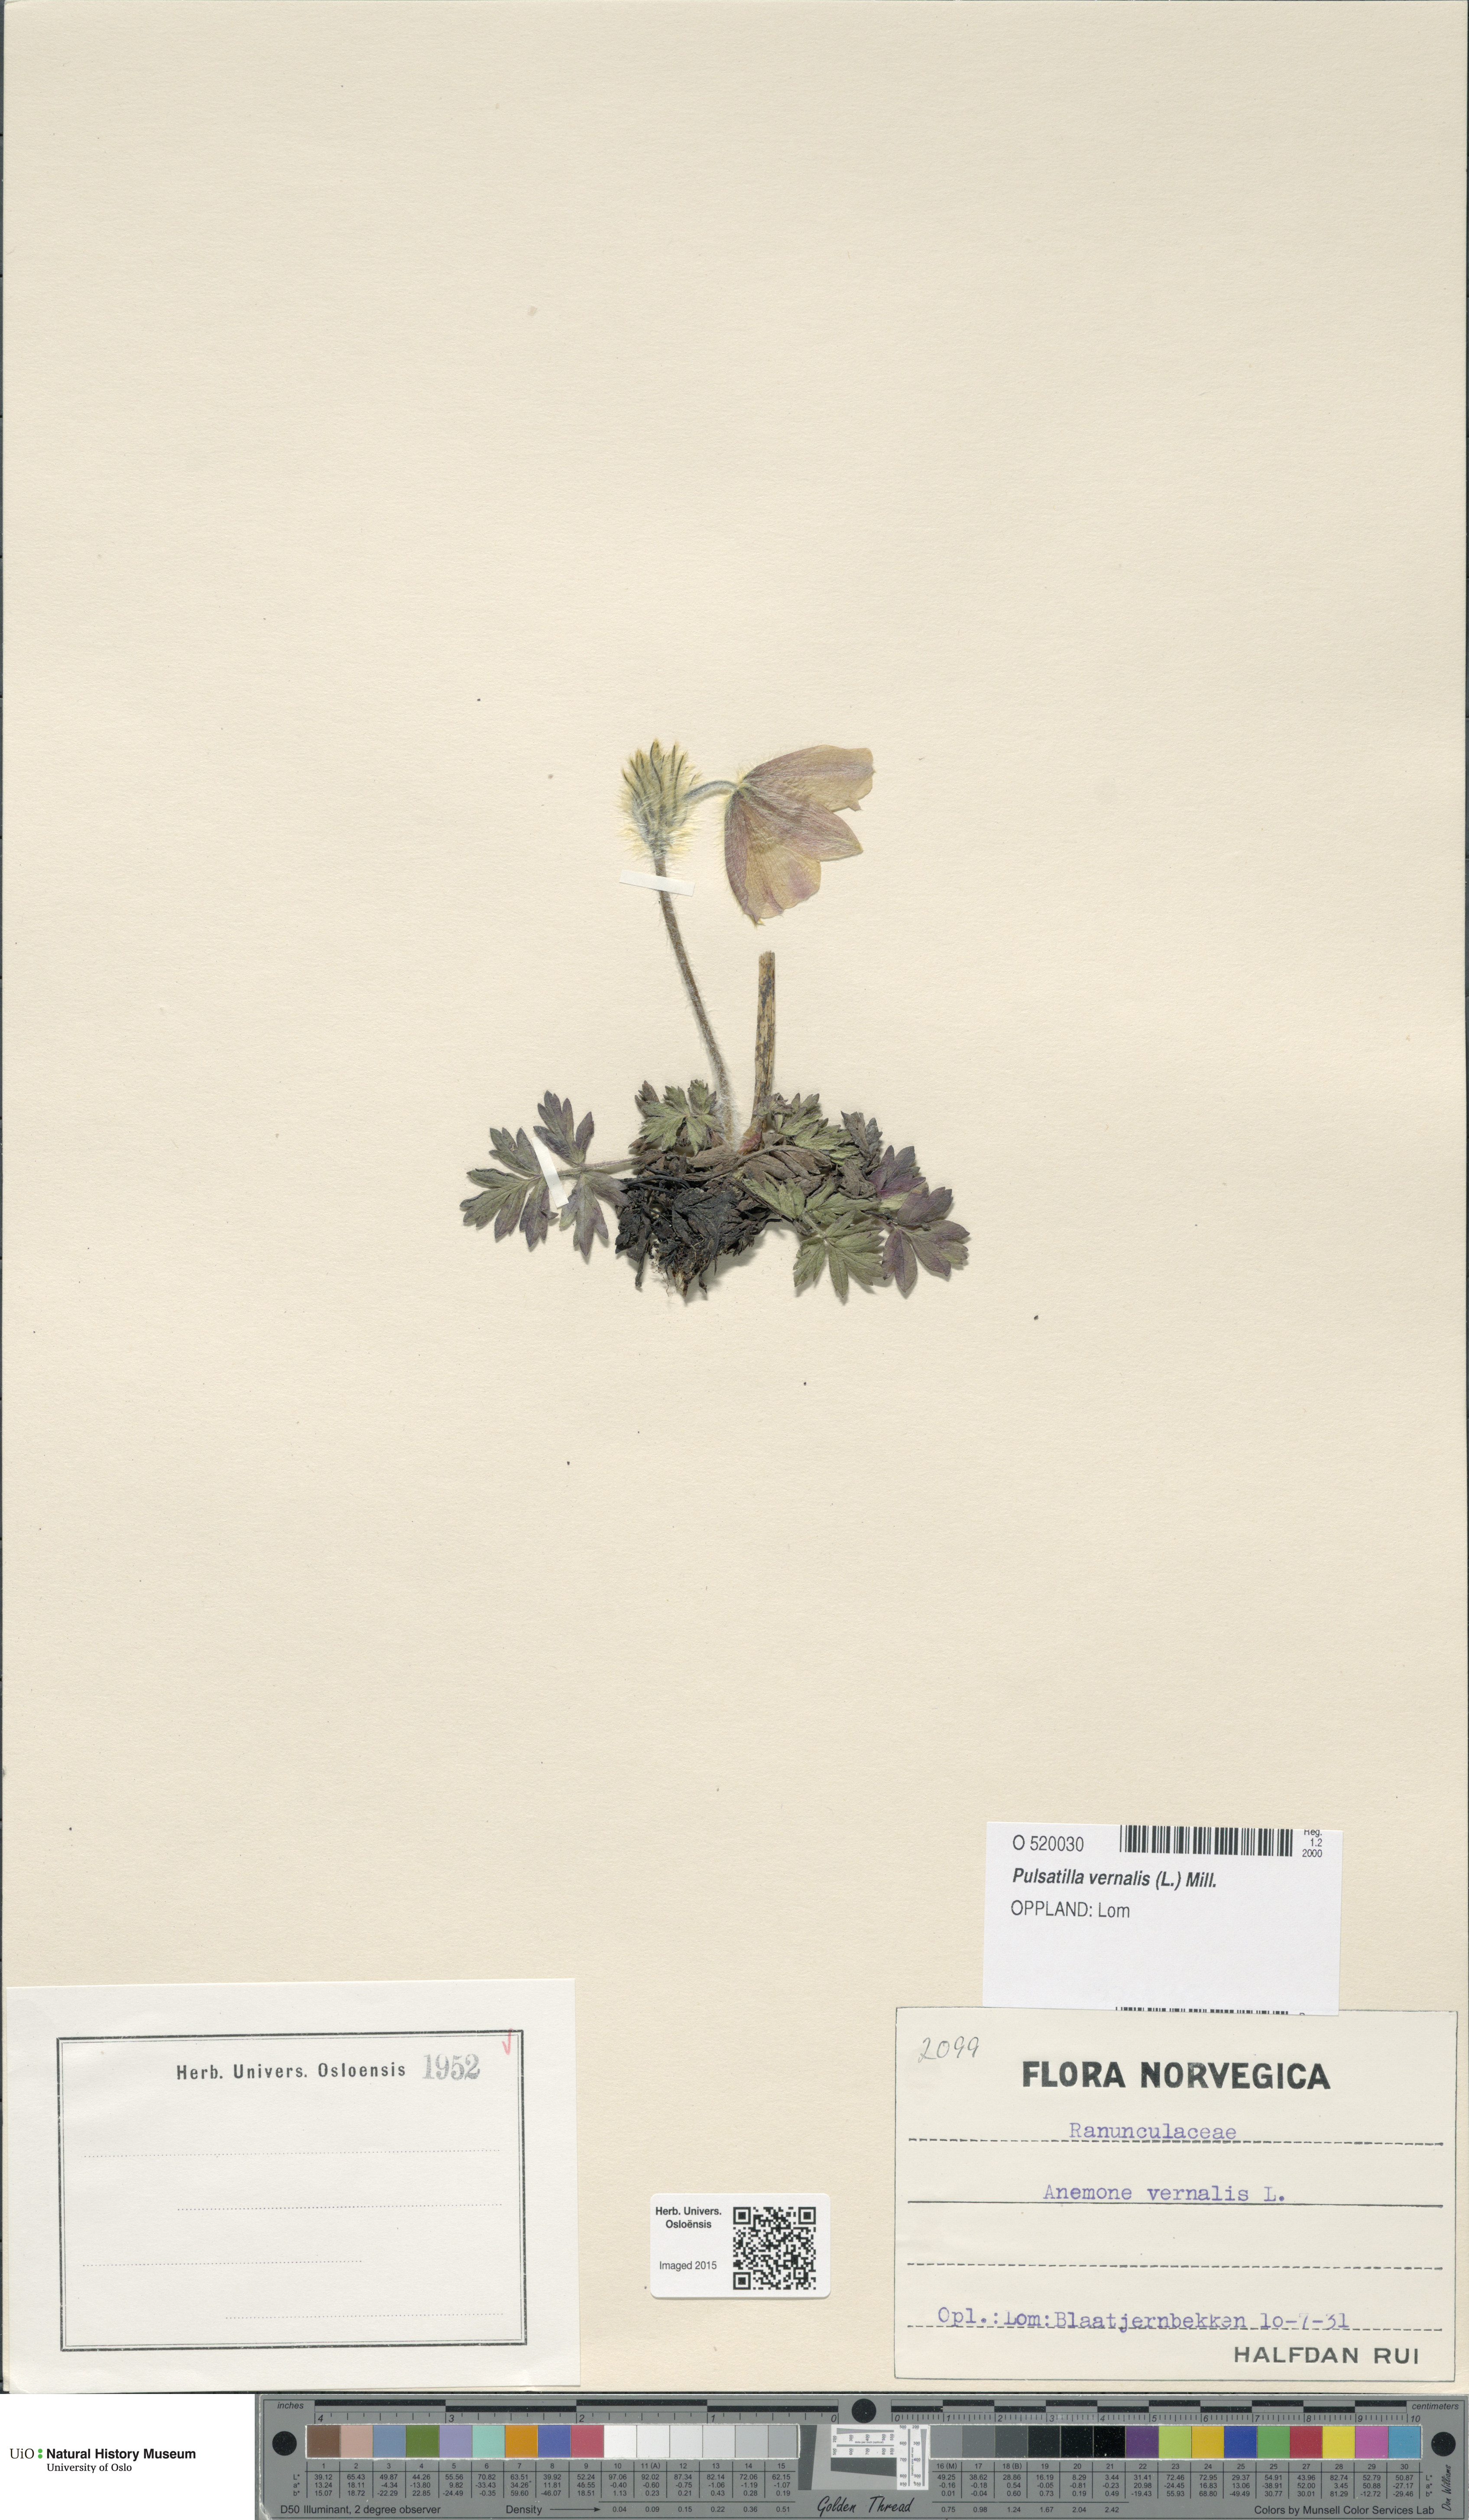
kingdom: Plantae
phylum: Tracheophyta
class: Magnoliopsida
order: Ranunculales
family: Ranunculaceae
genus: Pulsatilla
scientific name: Pulsatilla vernalis
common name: Spring pasque flower
